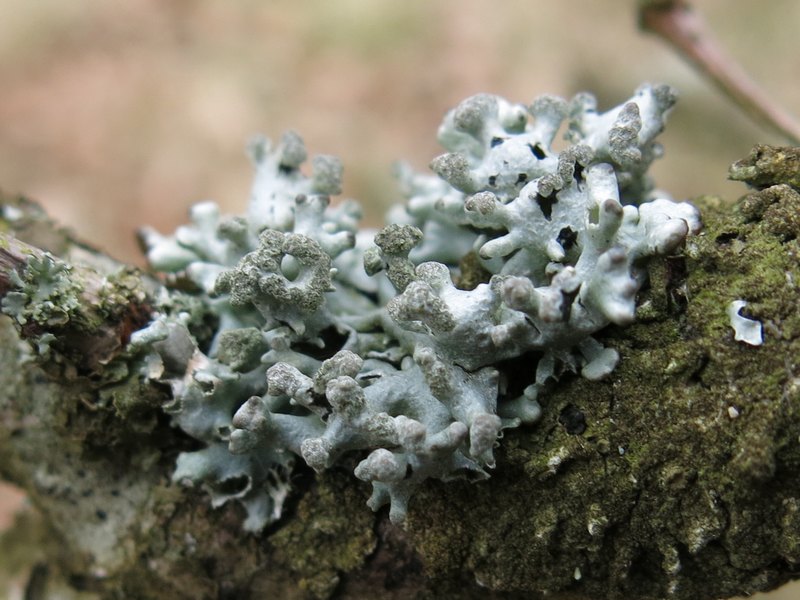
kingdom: Fungi
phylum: Ascomycota
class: Lecanoromycetes
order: Lecanorales
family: Parmeliaceae
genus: Hypogymnia
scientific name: Hypogymnia tubulosa
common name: finger-kvistlav
